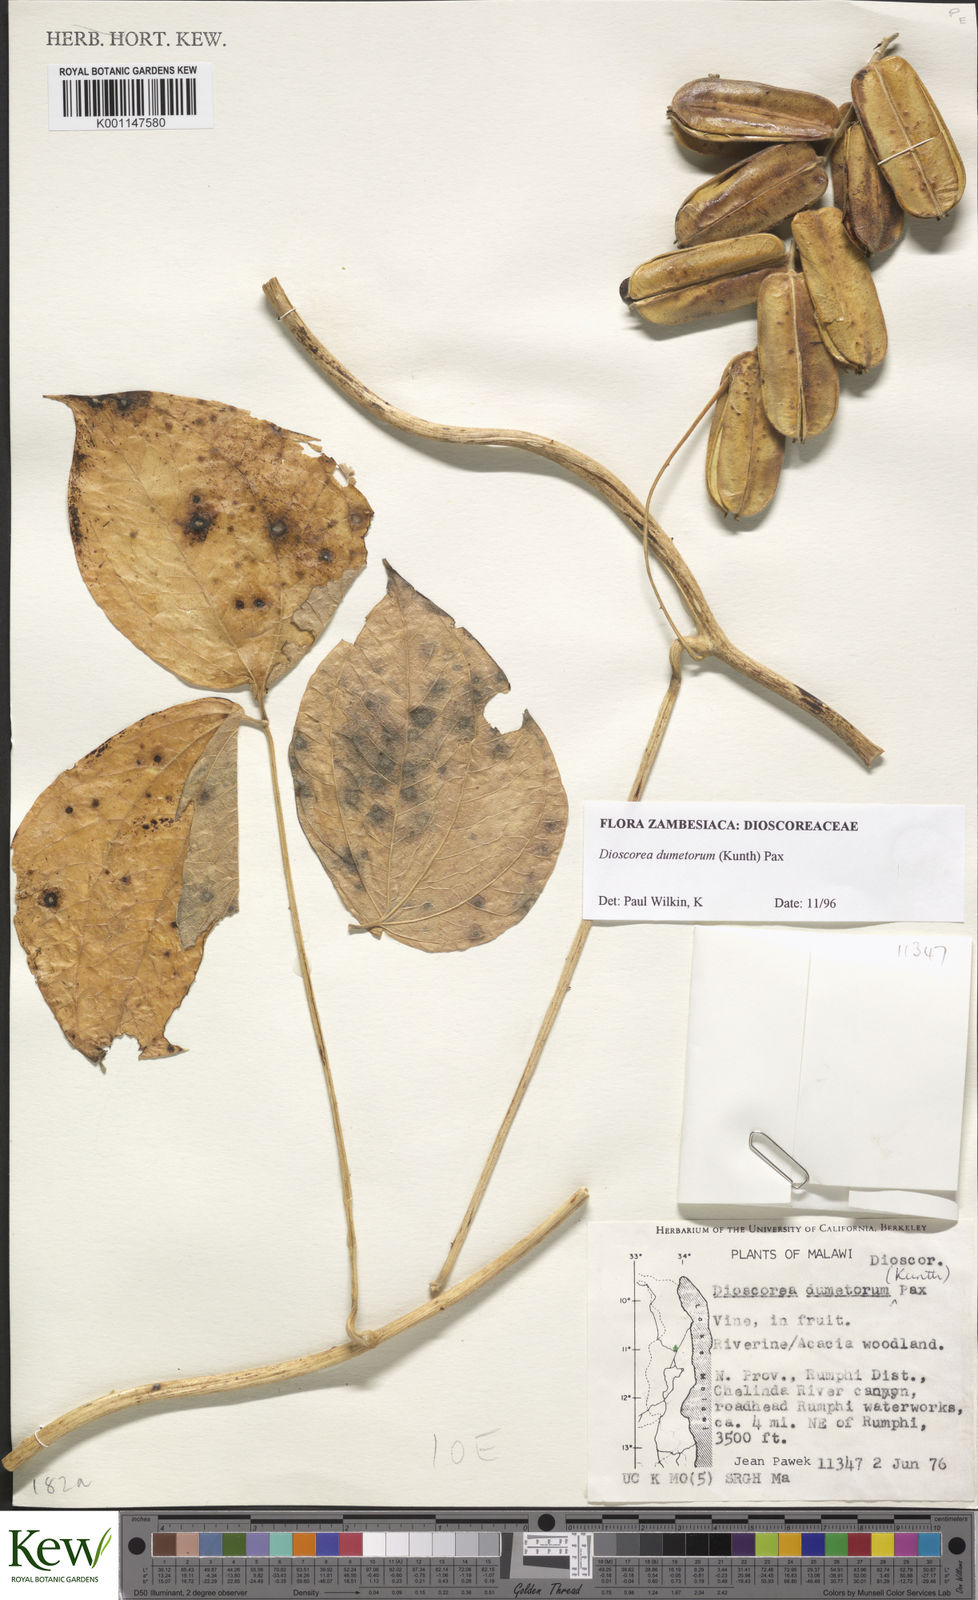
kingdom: Plantae
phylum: Tracheophyta
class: Liliopsida
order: Dioscoreales
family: Dioscoreaceae
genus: Dioscorea
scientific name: Dioscorea dumetorum
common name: African bitter yam
